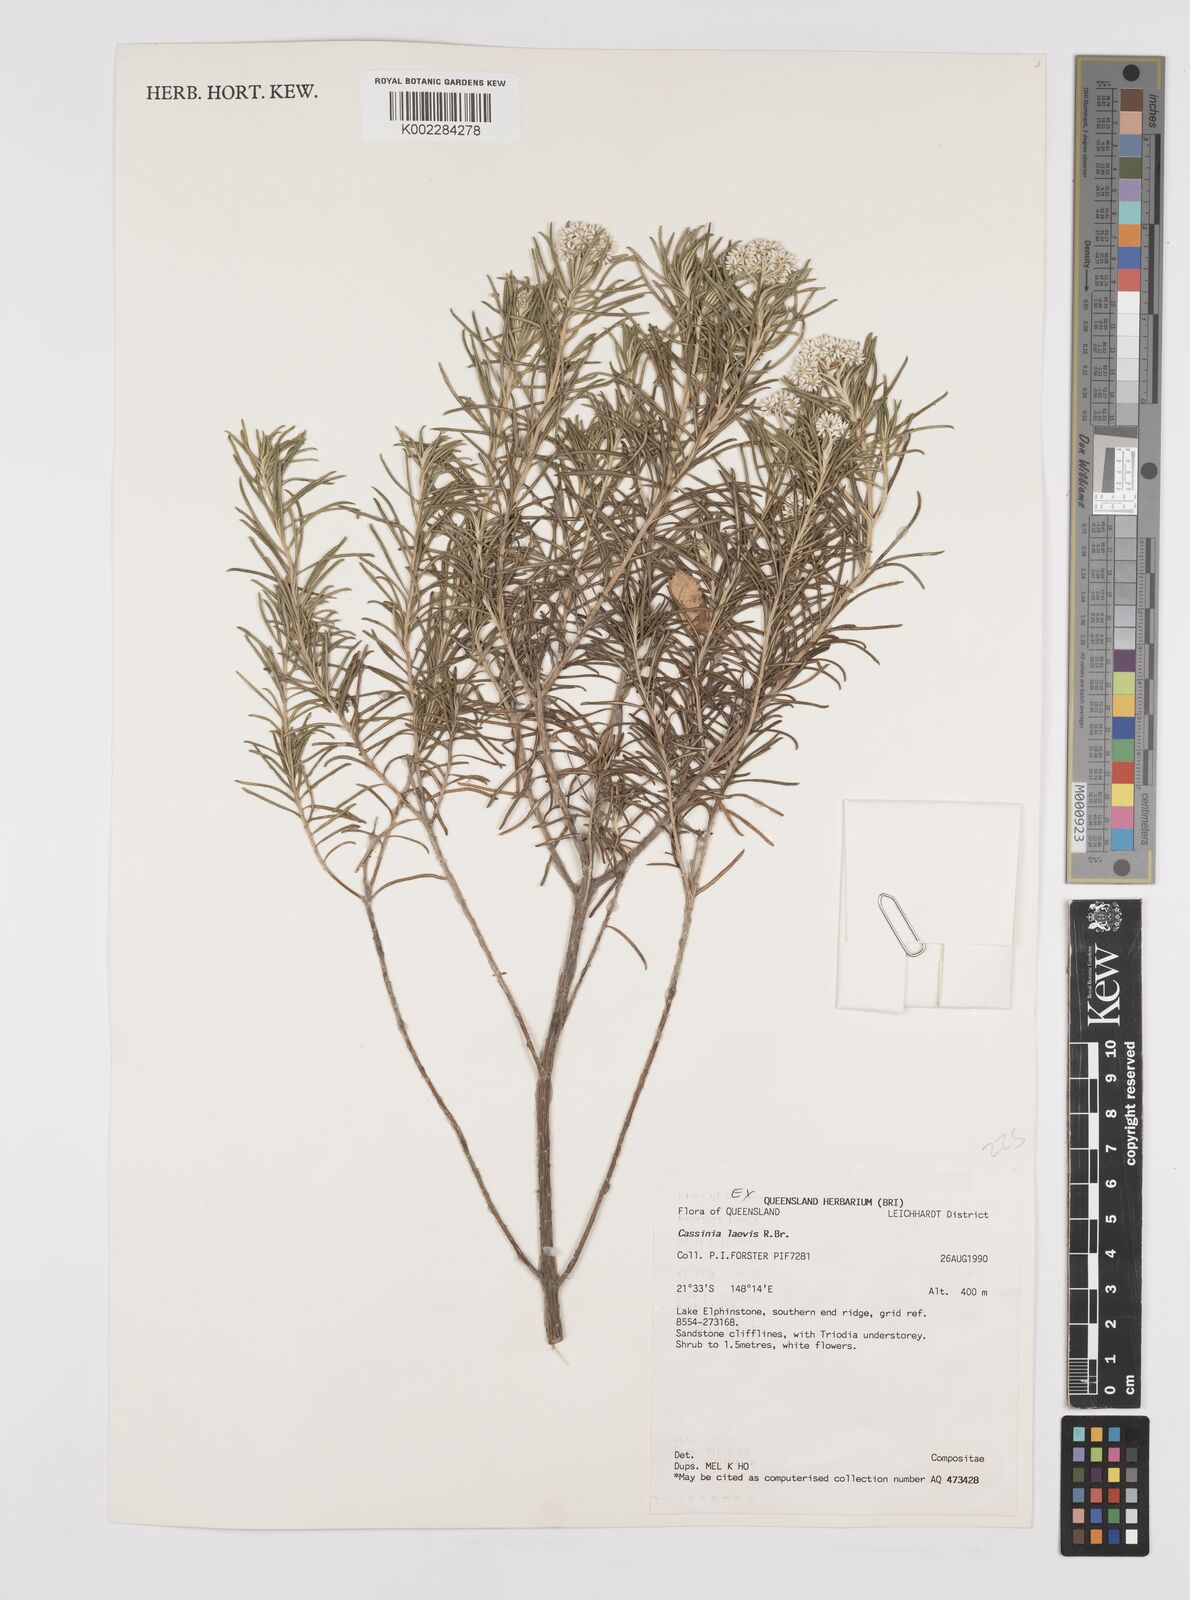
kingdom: Plantae
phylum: Tracheophyta
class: Magnoliopsida
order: Asterales
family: Asteraceae
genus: Cassinia
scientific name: Cassinia laevis
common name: Coughbush
